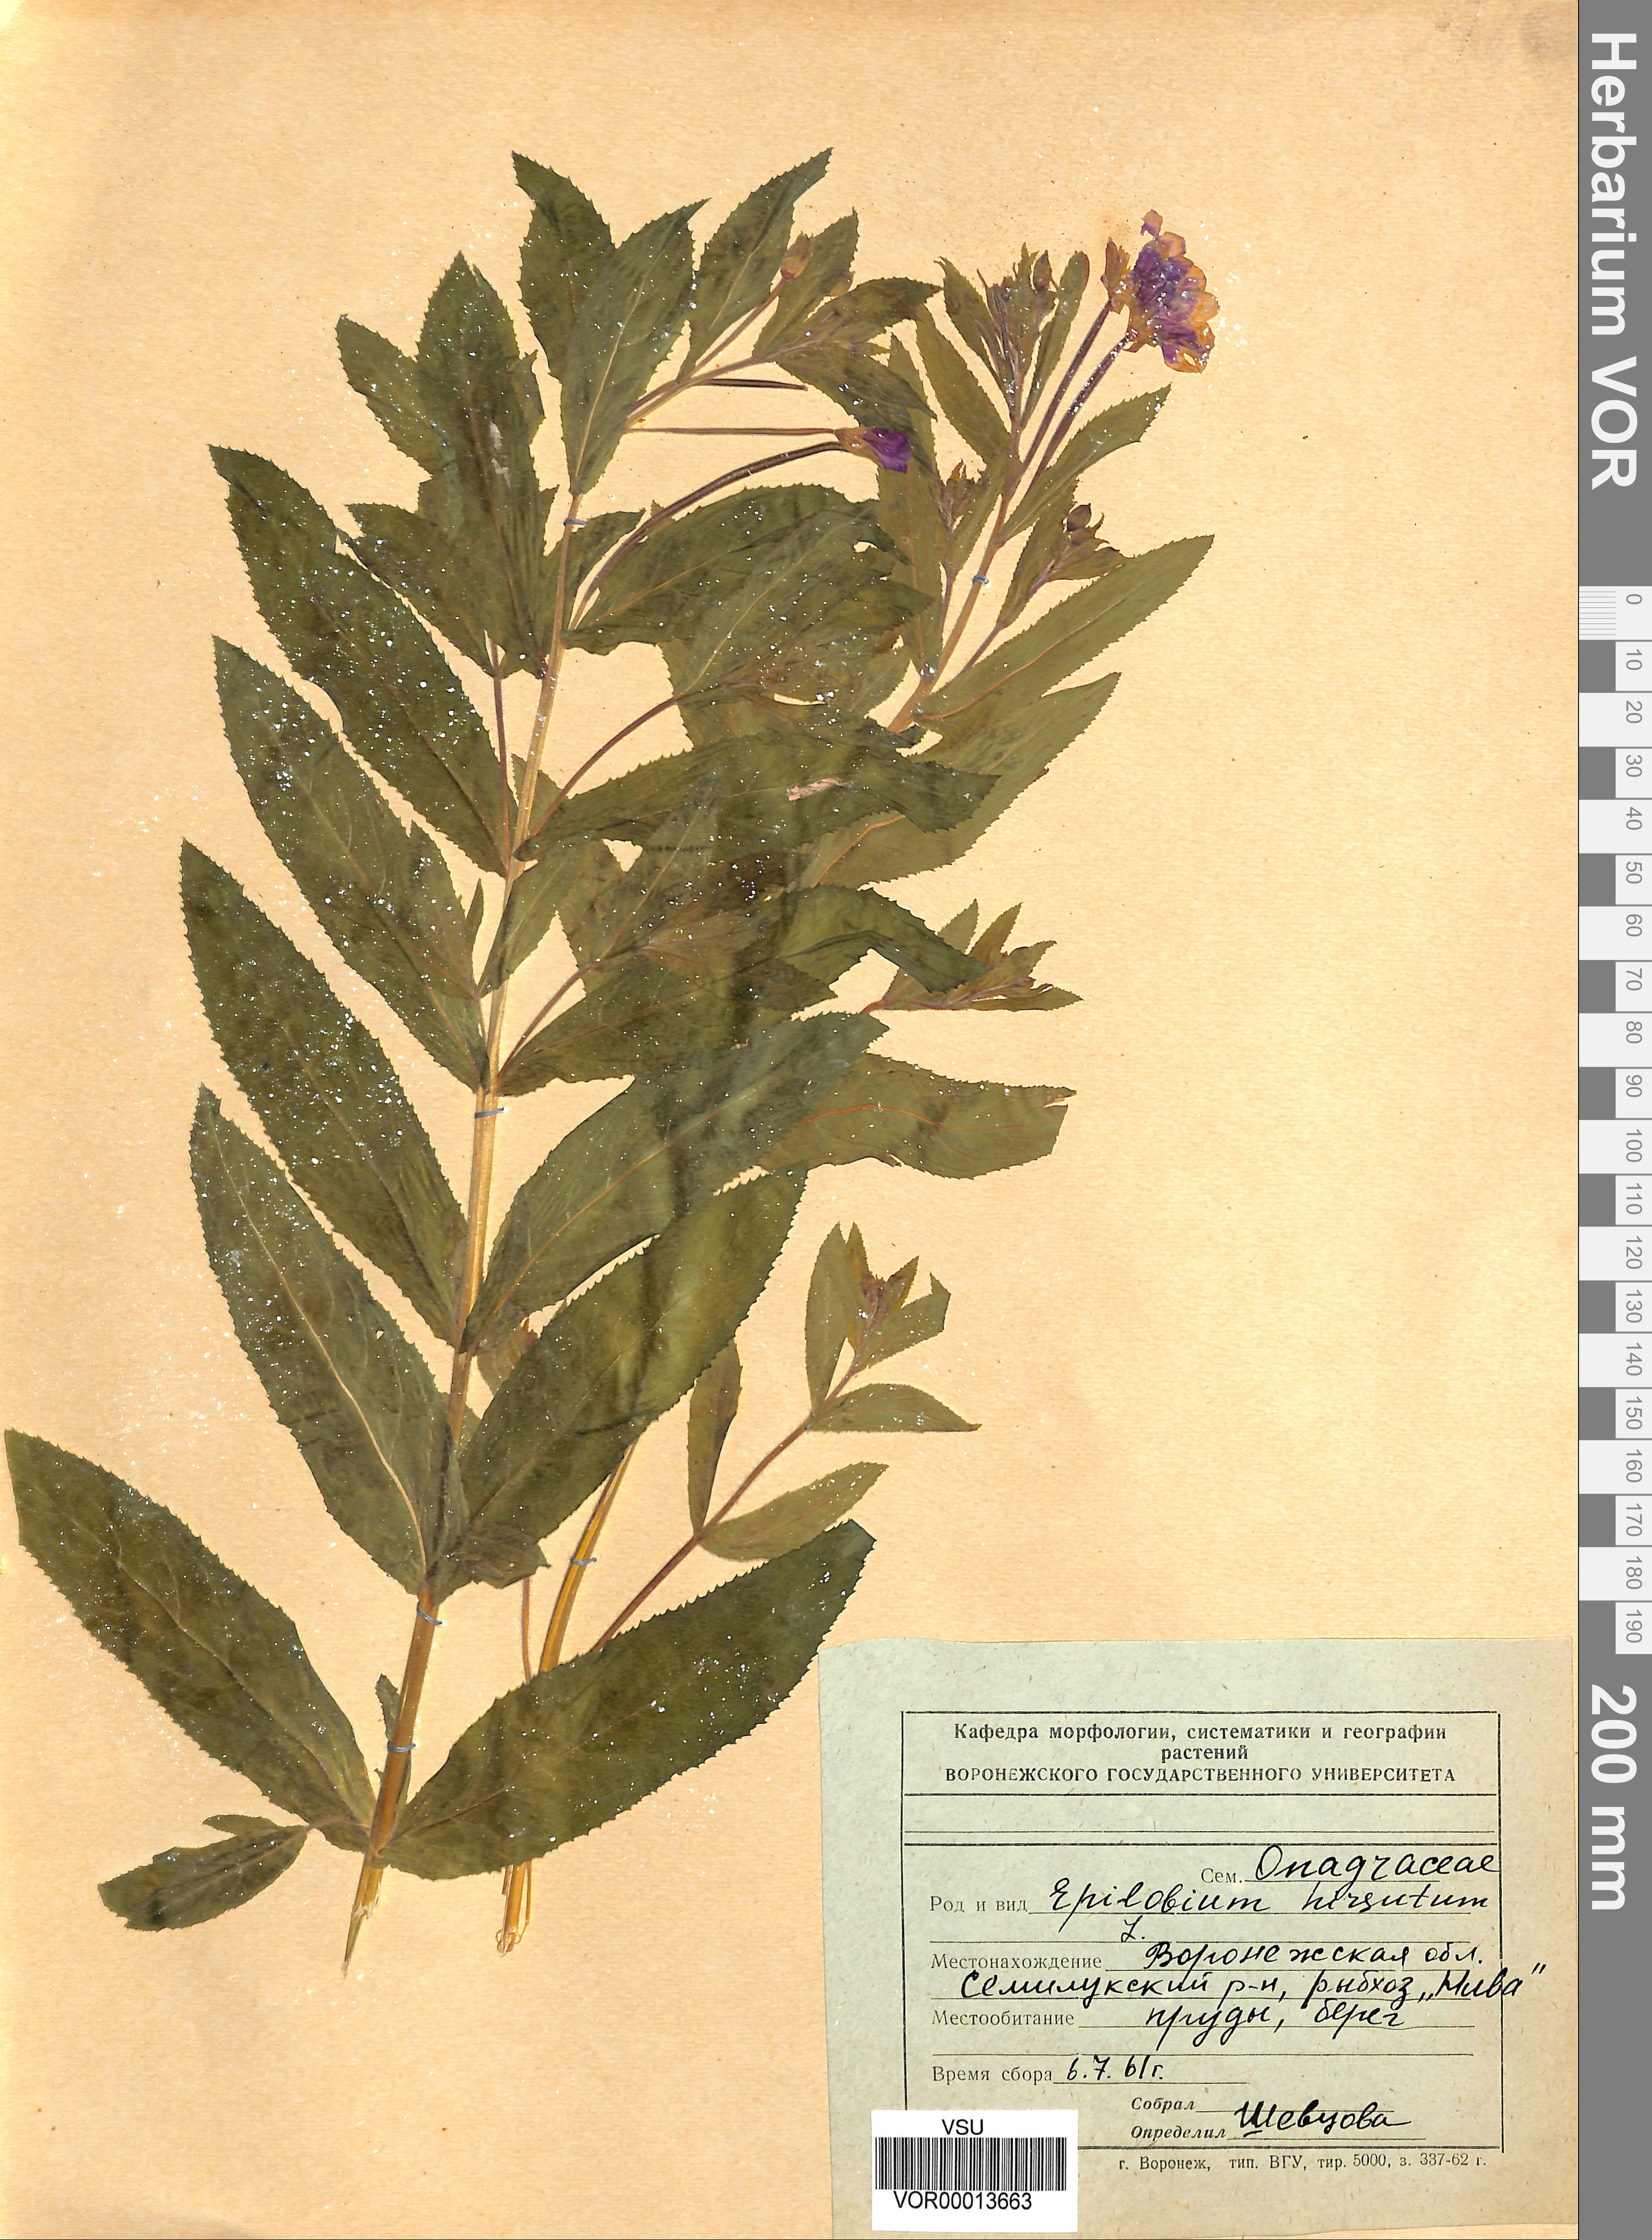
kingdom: Plantae
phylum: Tracheophyta
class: Magnoliopsida
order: Myrtales
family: Onagraceae
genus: Epilobium
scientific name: Epilobium hirsutum
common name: Great willowherb
